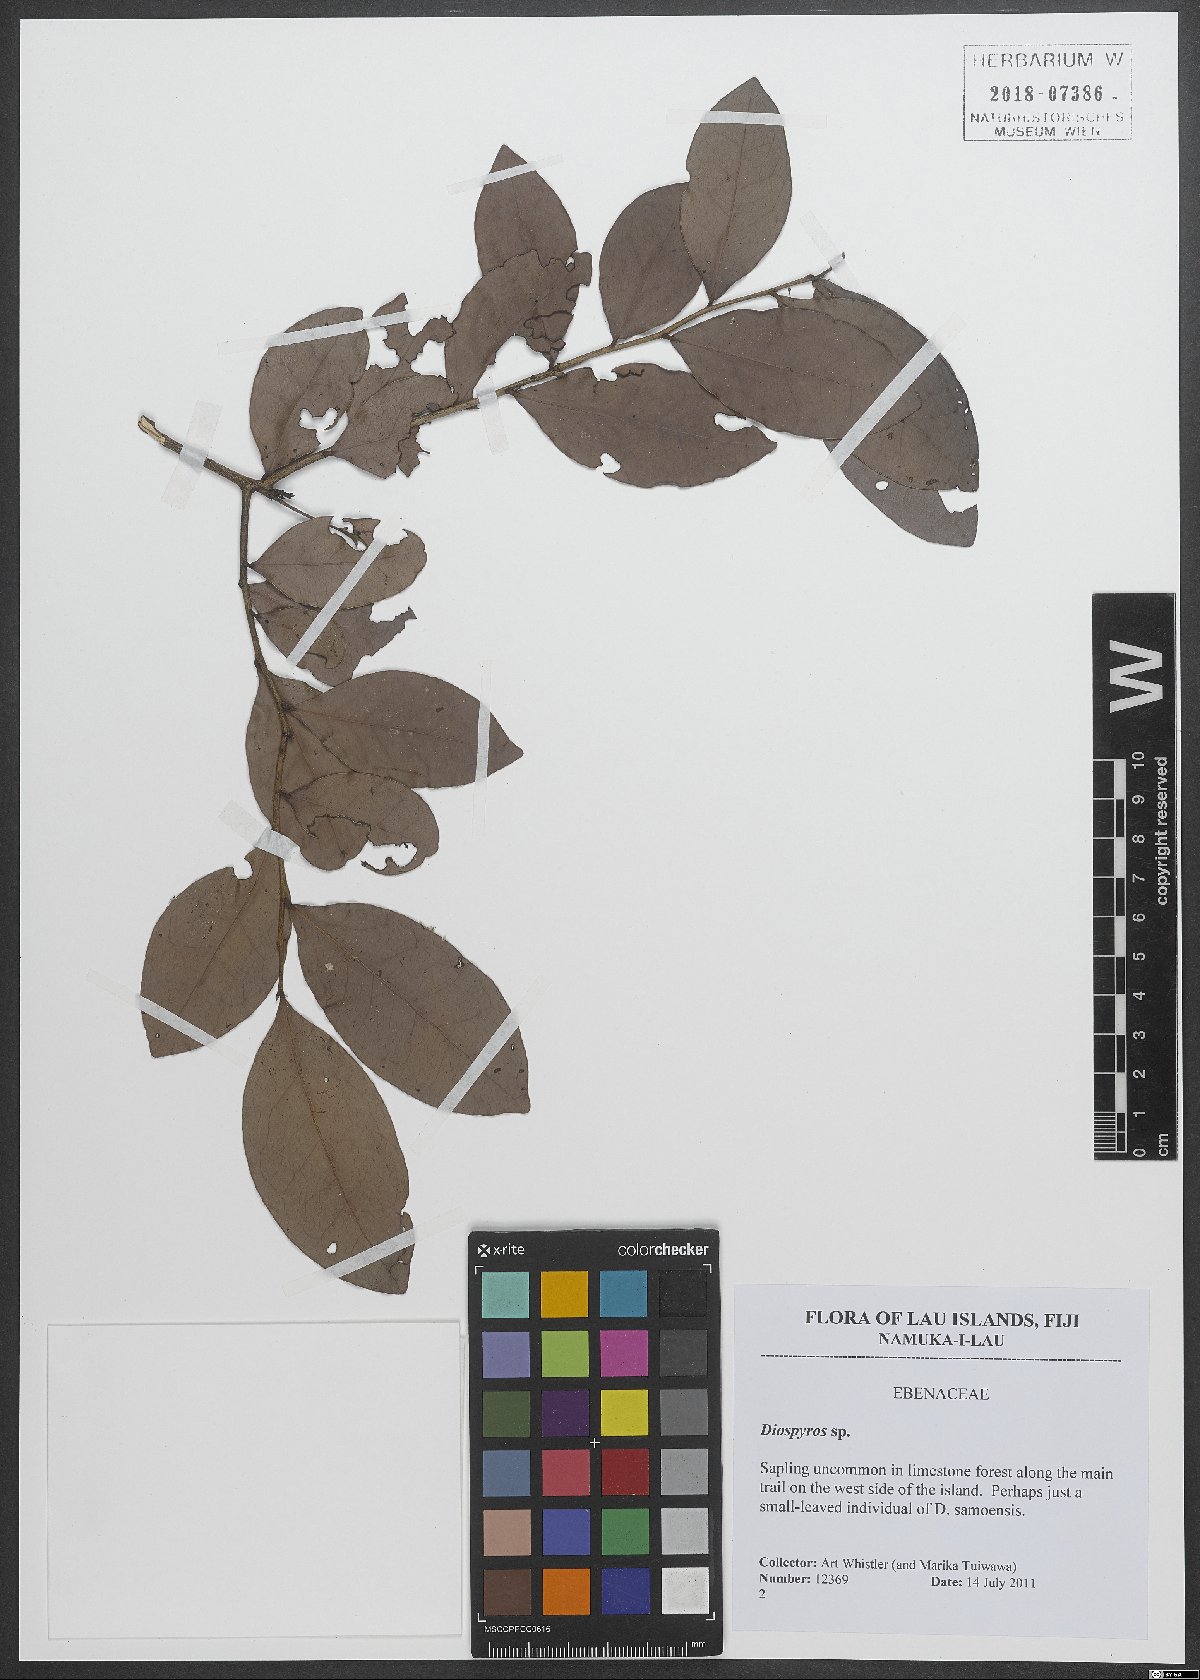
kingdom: Plantae
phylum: Tracheophyta
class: Magnoliopsida
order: Ericales
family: Ebenaceae
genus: Diospyros
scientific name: Diospyros
